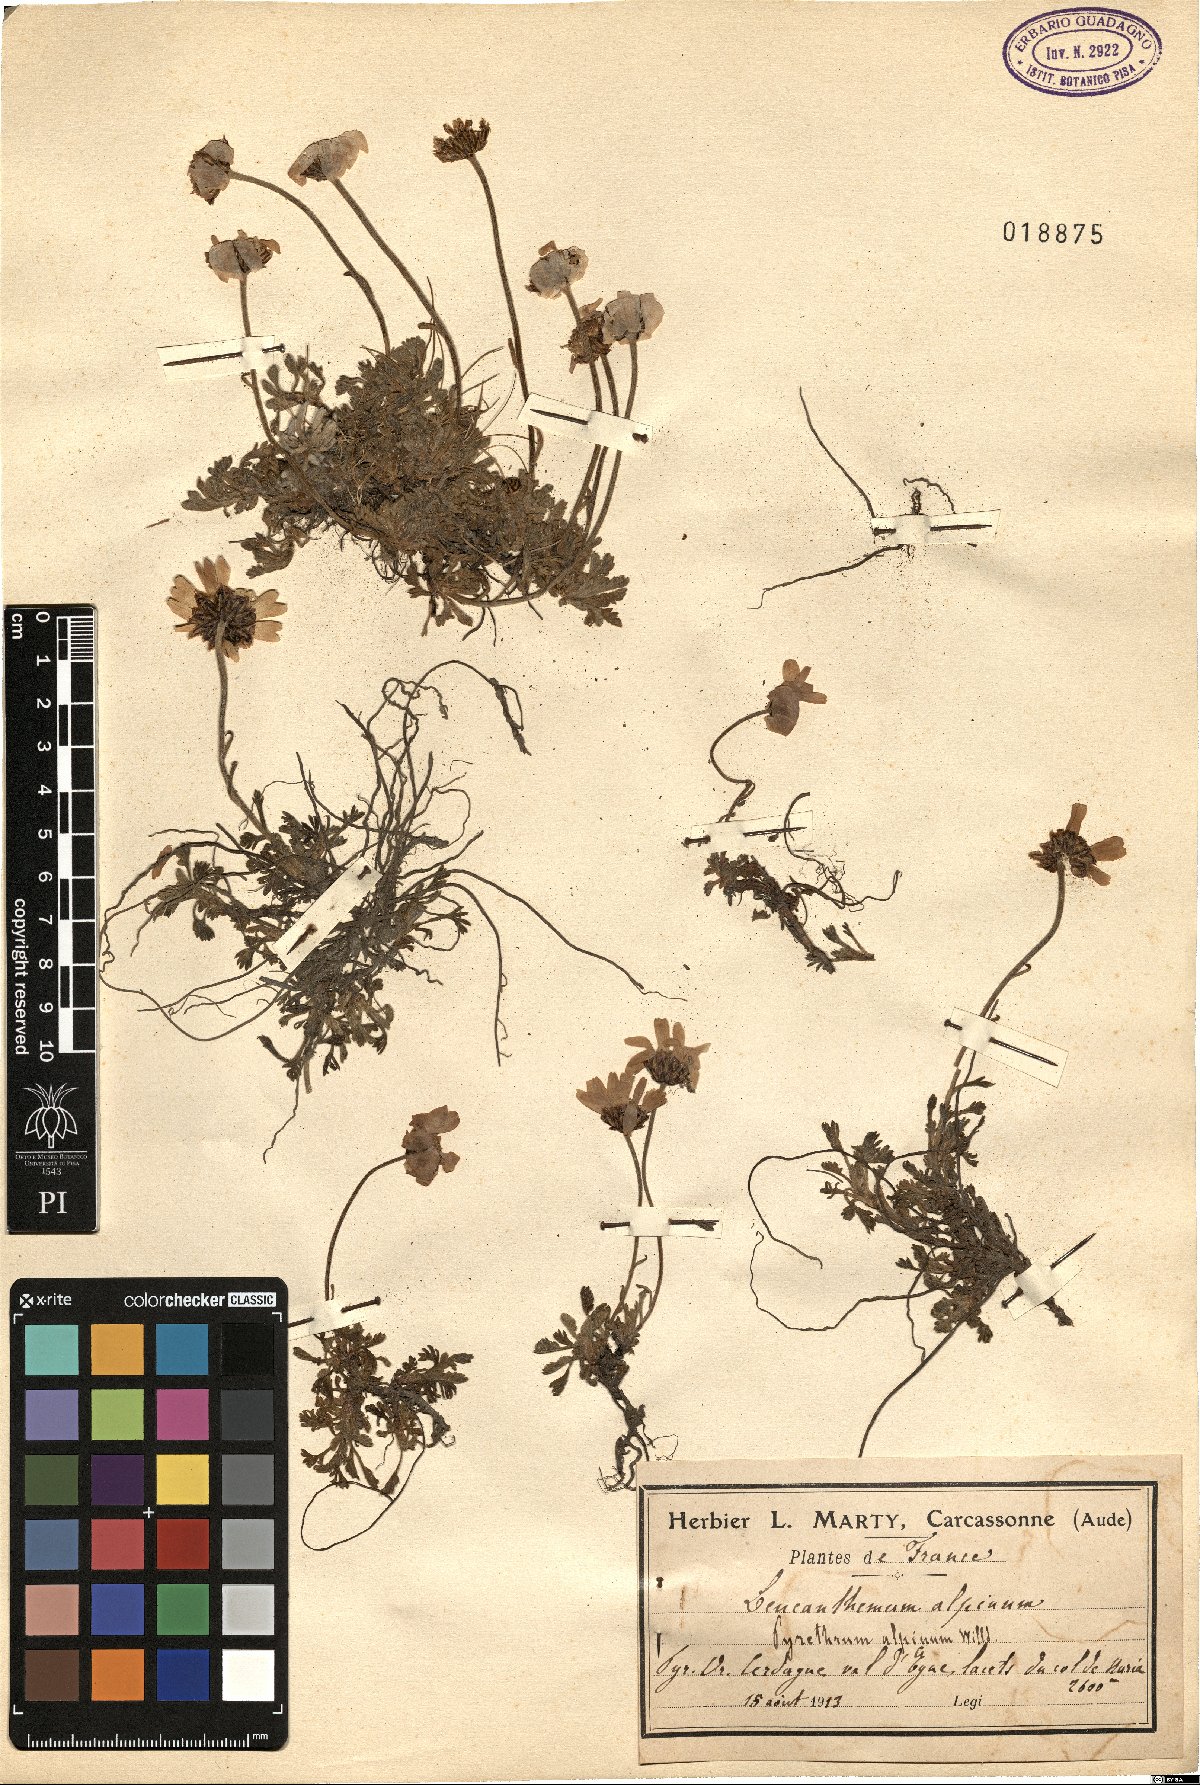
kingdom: Plantae
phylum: Tracheophyta
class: Magnoliopsida
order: Asterales
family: Asteraceae
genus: Leucanthemopsis
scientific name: Leucanthemopsis alpina
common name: Alpine moon daisy
